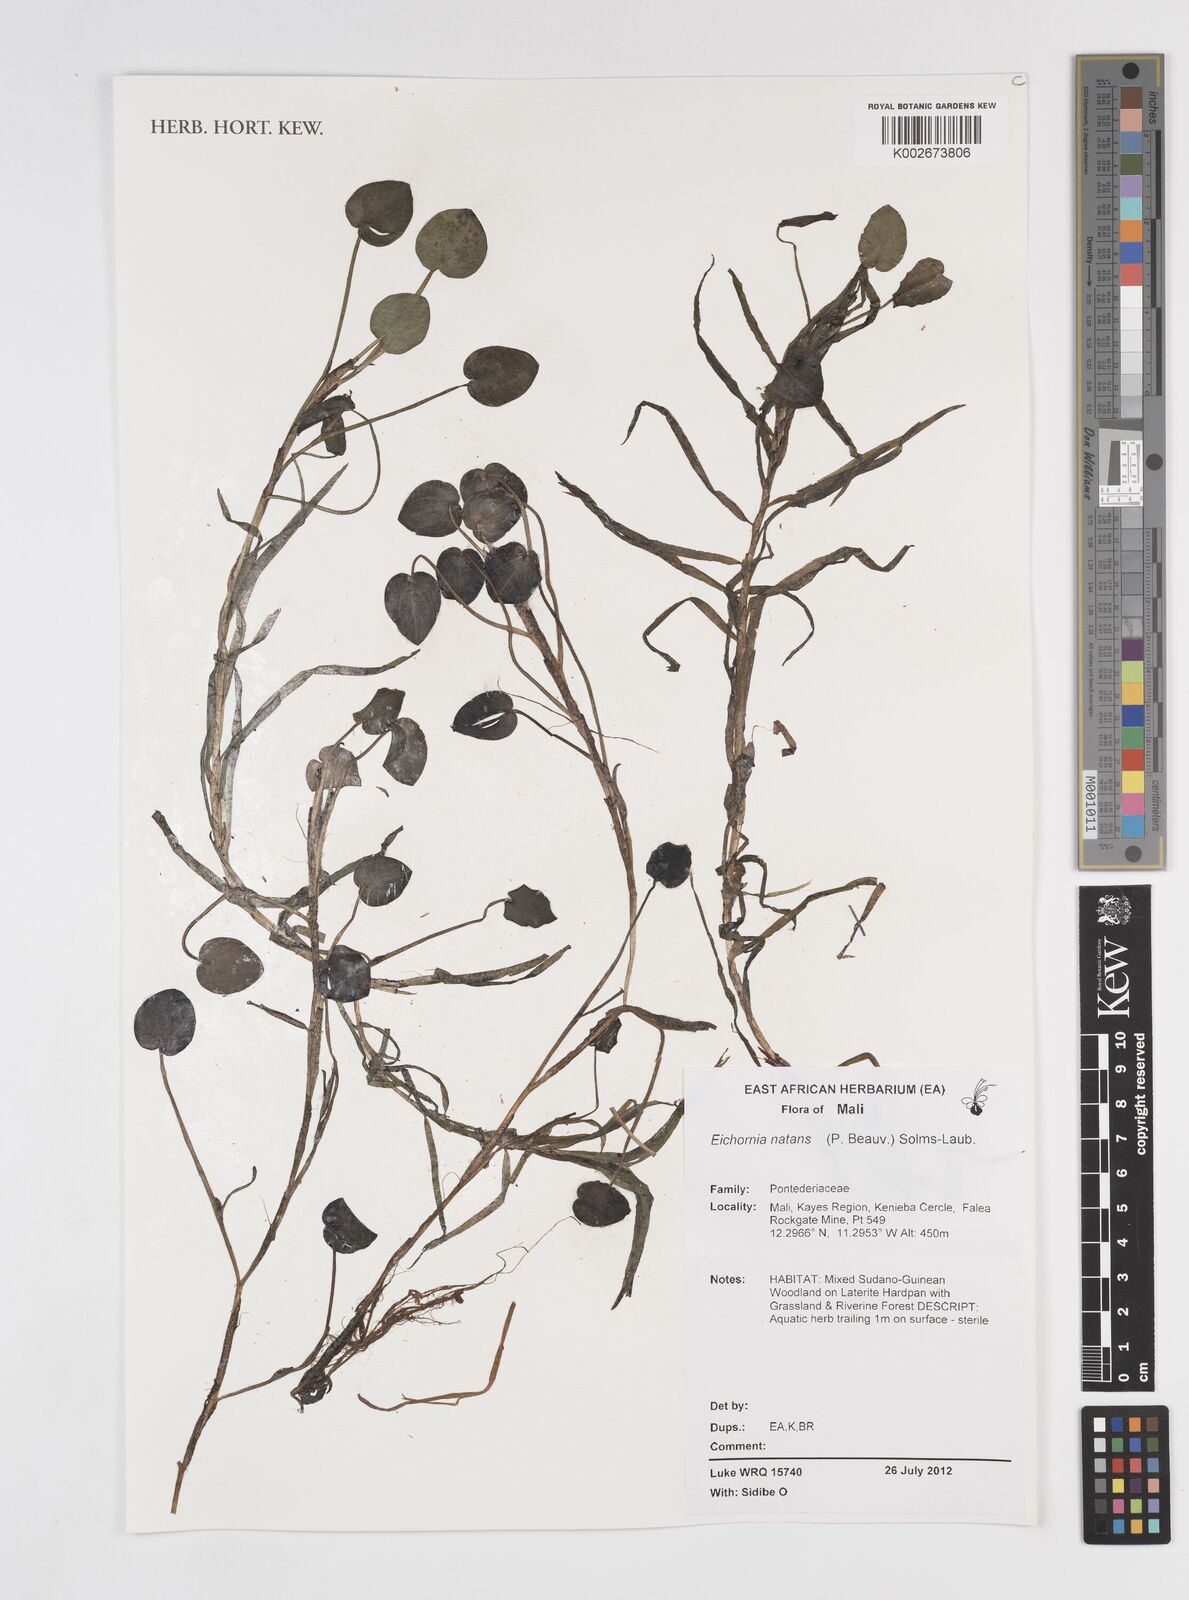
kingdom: Plantae
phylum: Tracheophyta
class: Liliopsida
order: Commelinales
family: Pontederiaceae
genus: Pontederia
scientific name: Pontederia diversifolia
